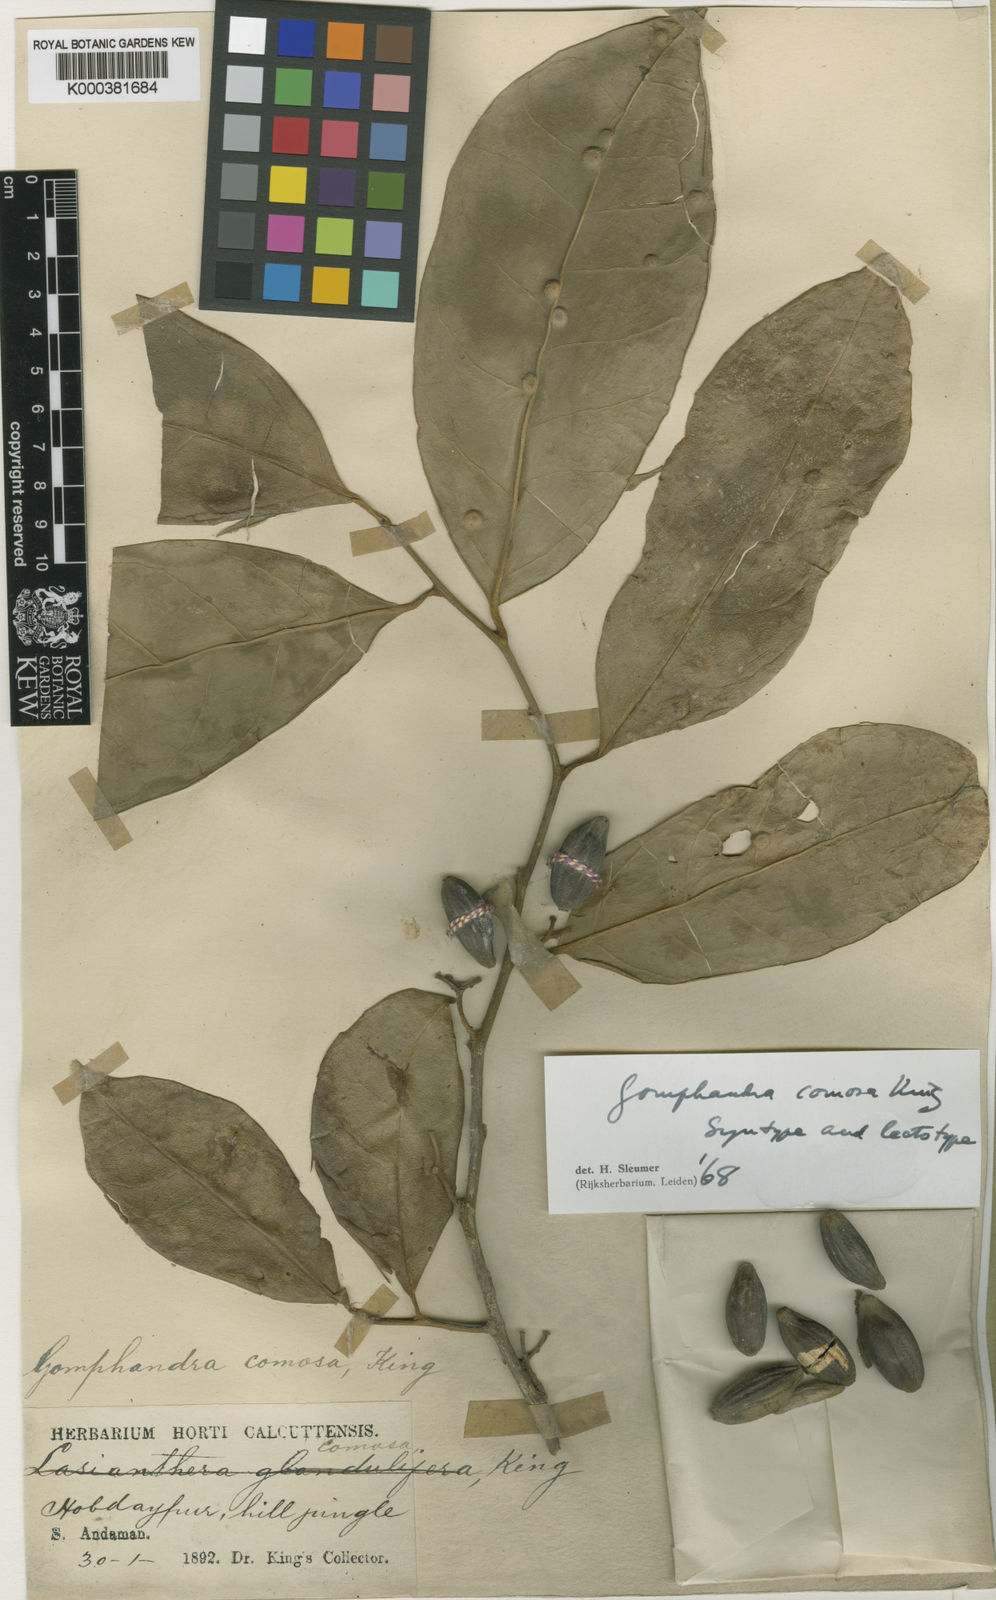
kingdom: Plantae
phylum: Tracheophyta
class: Magnoliopsida
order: Cardiopteridales
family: Stemonuraceae
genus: Gomphandra
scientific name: Gomphandra comosa
